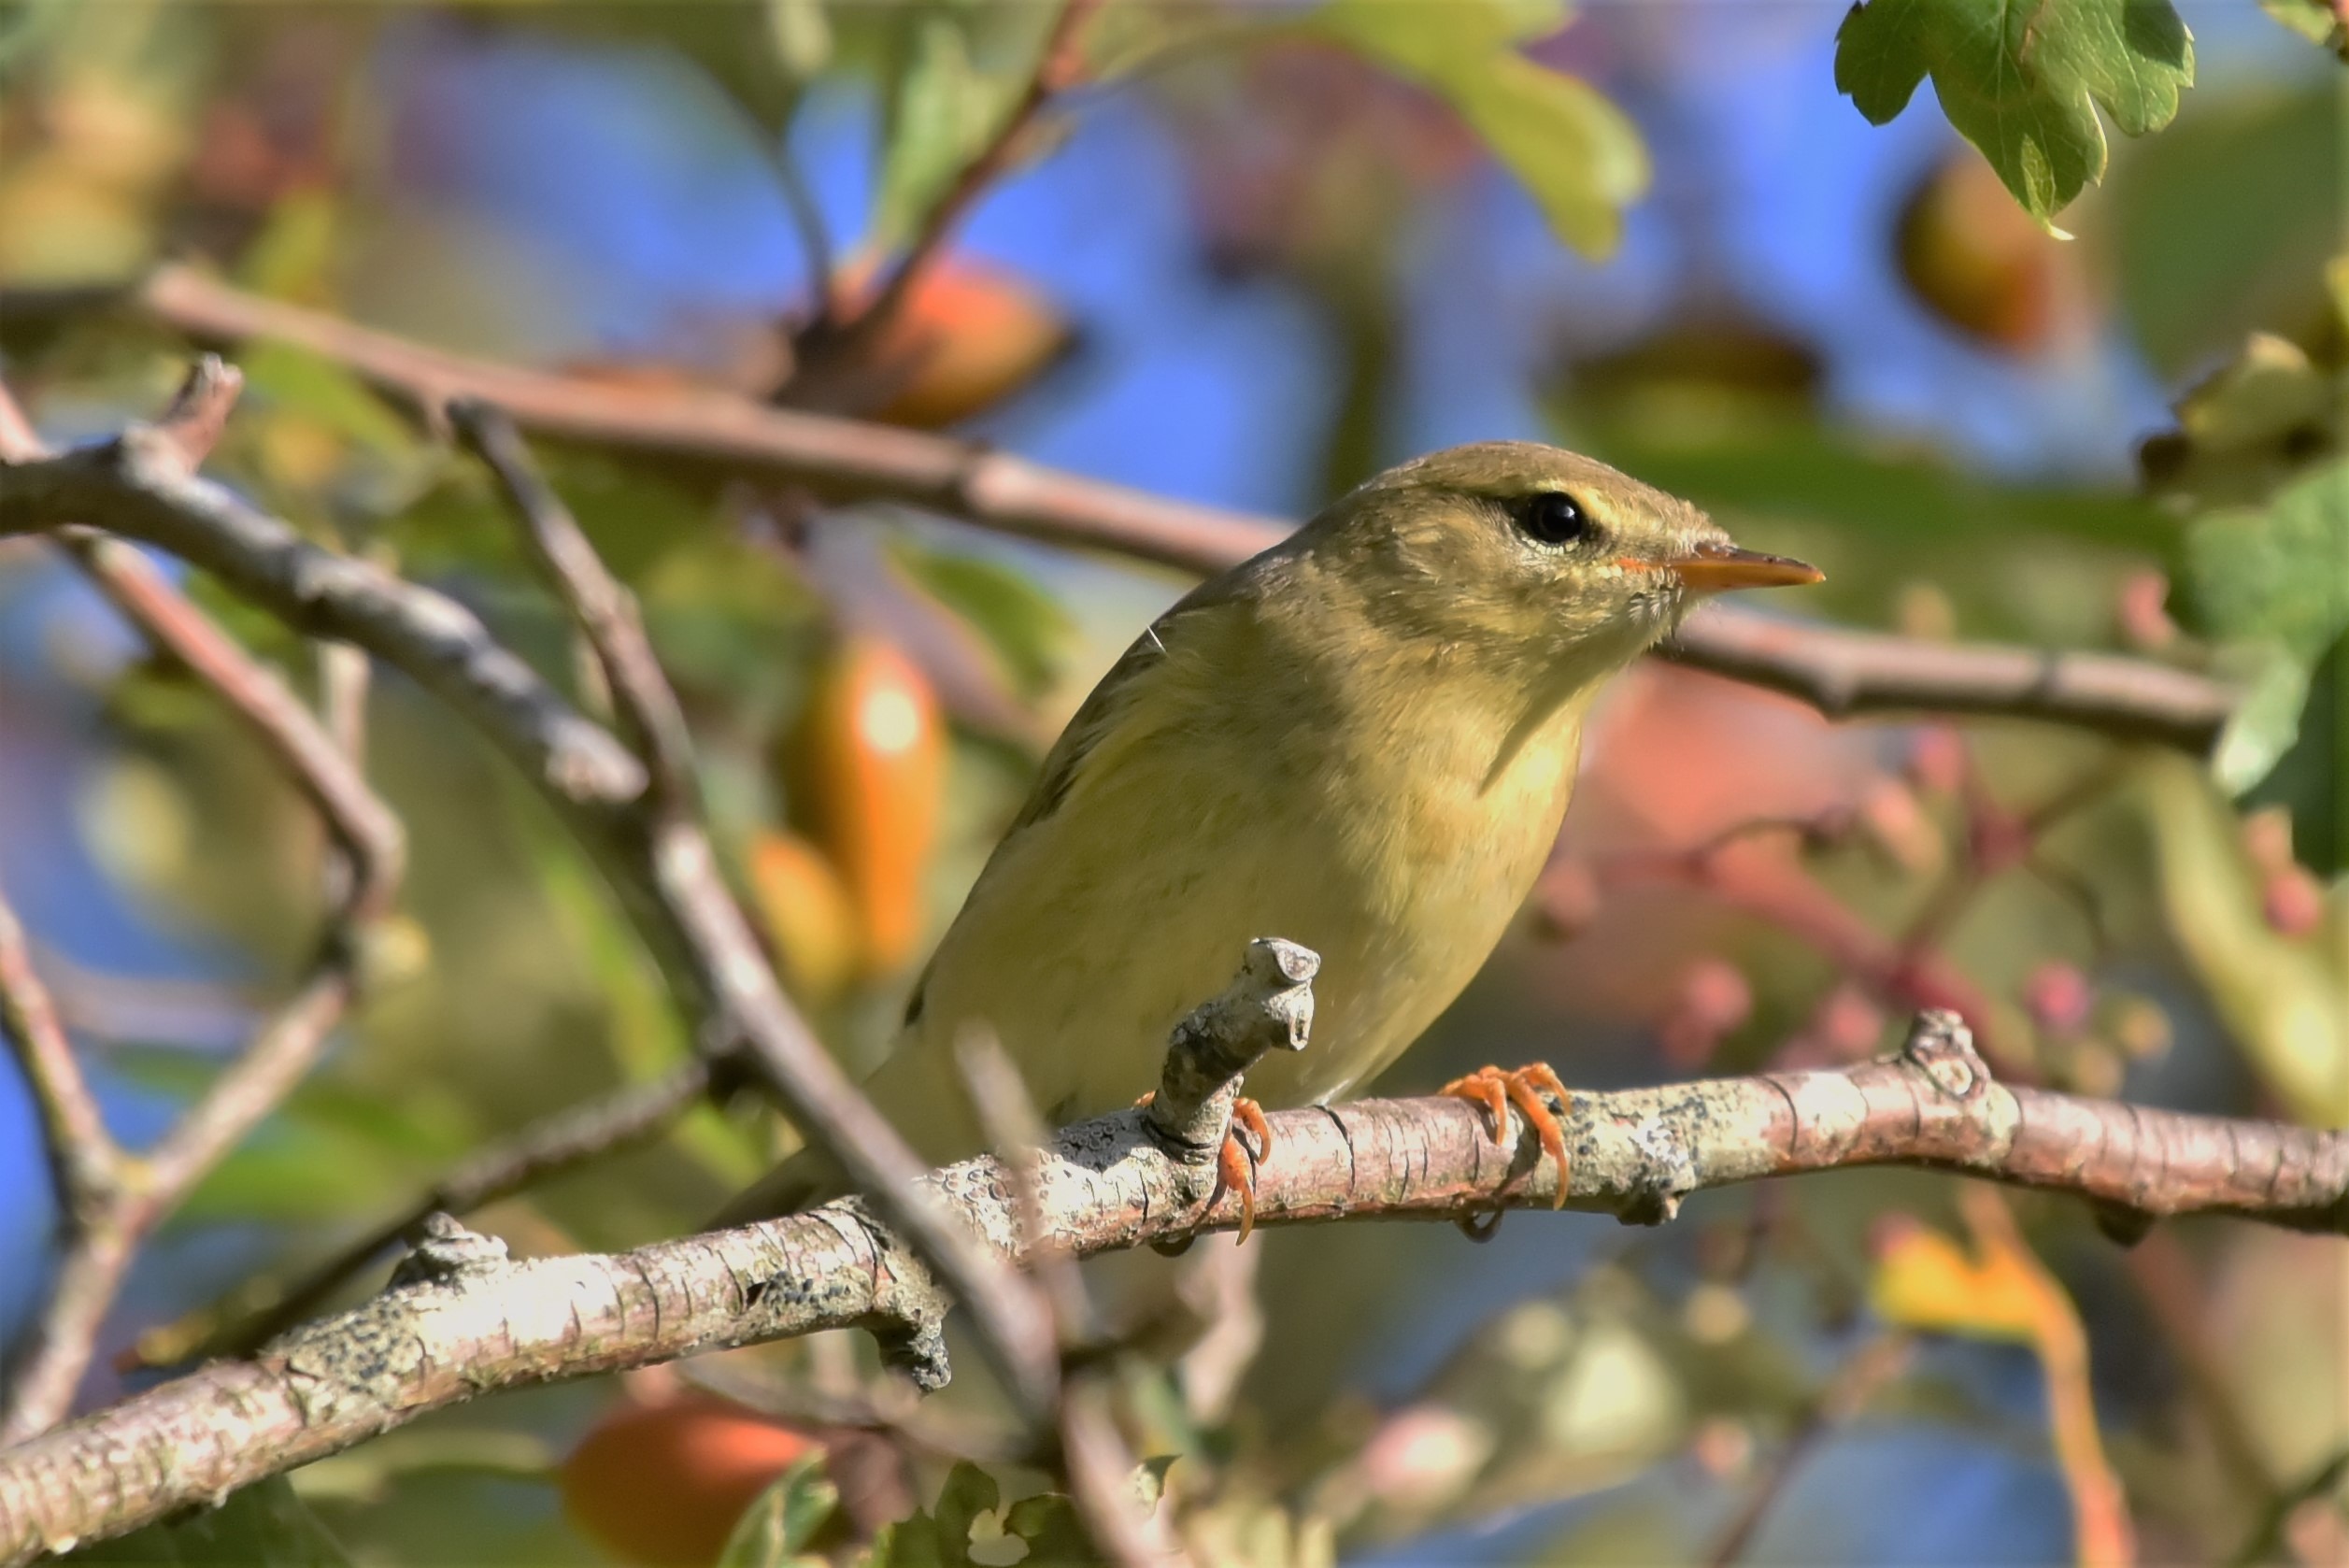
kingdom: Animalia
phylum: Chordata
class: Aves
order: Passeriformes
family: Phylloscopidae
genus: Phylloscopus
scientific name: Phylloscopus trochilus
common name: Løvsanger
